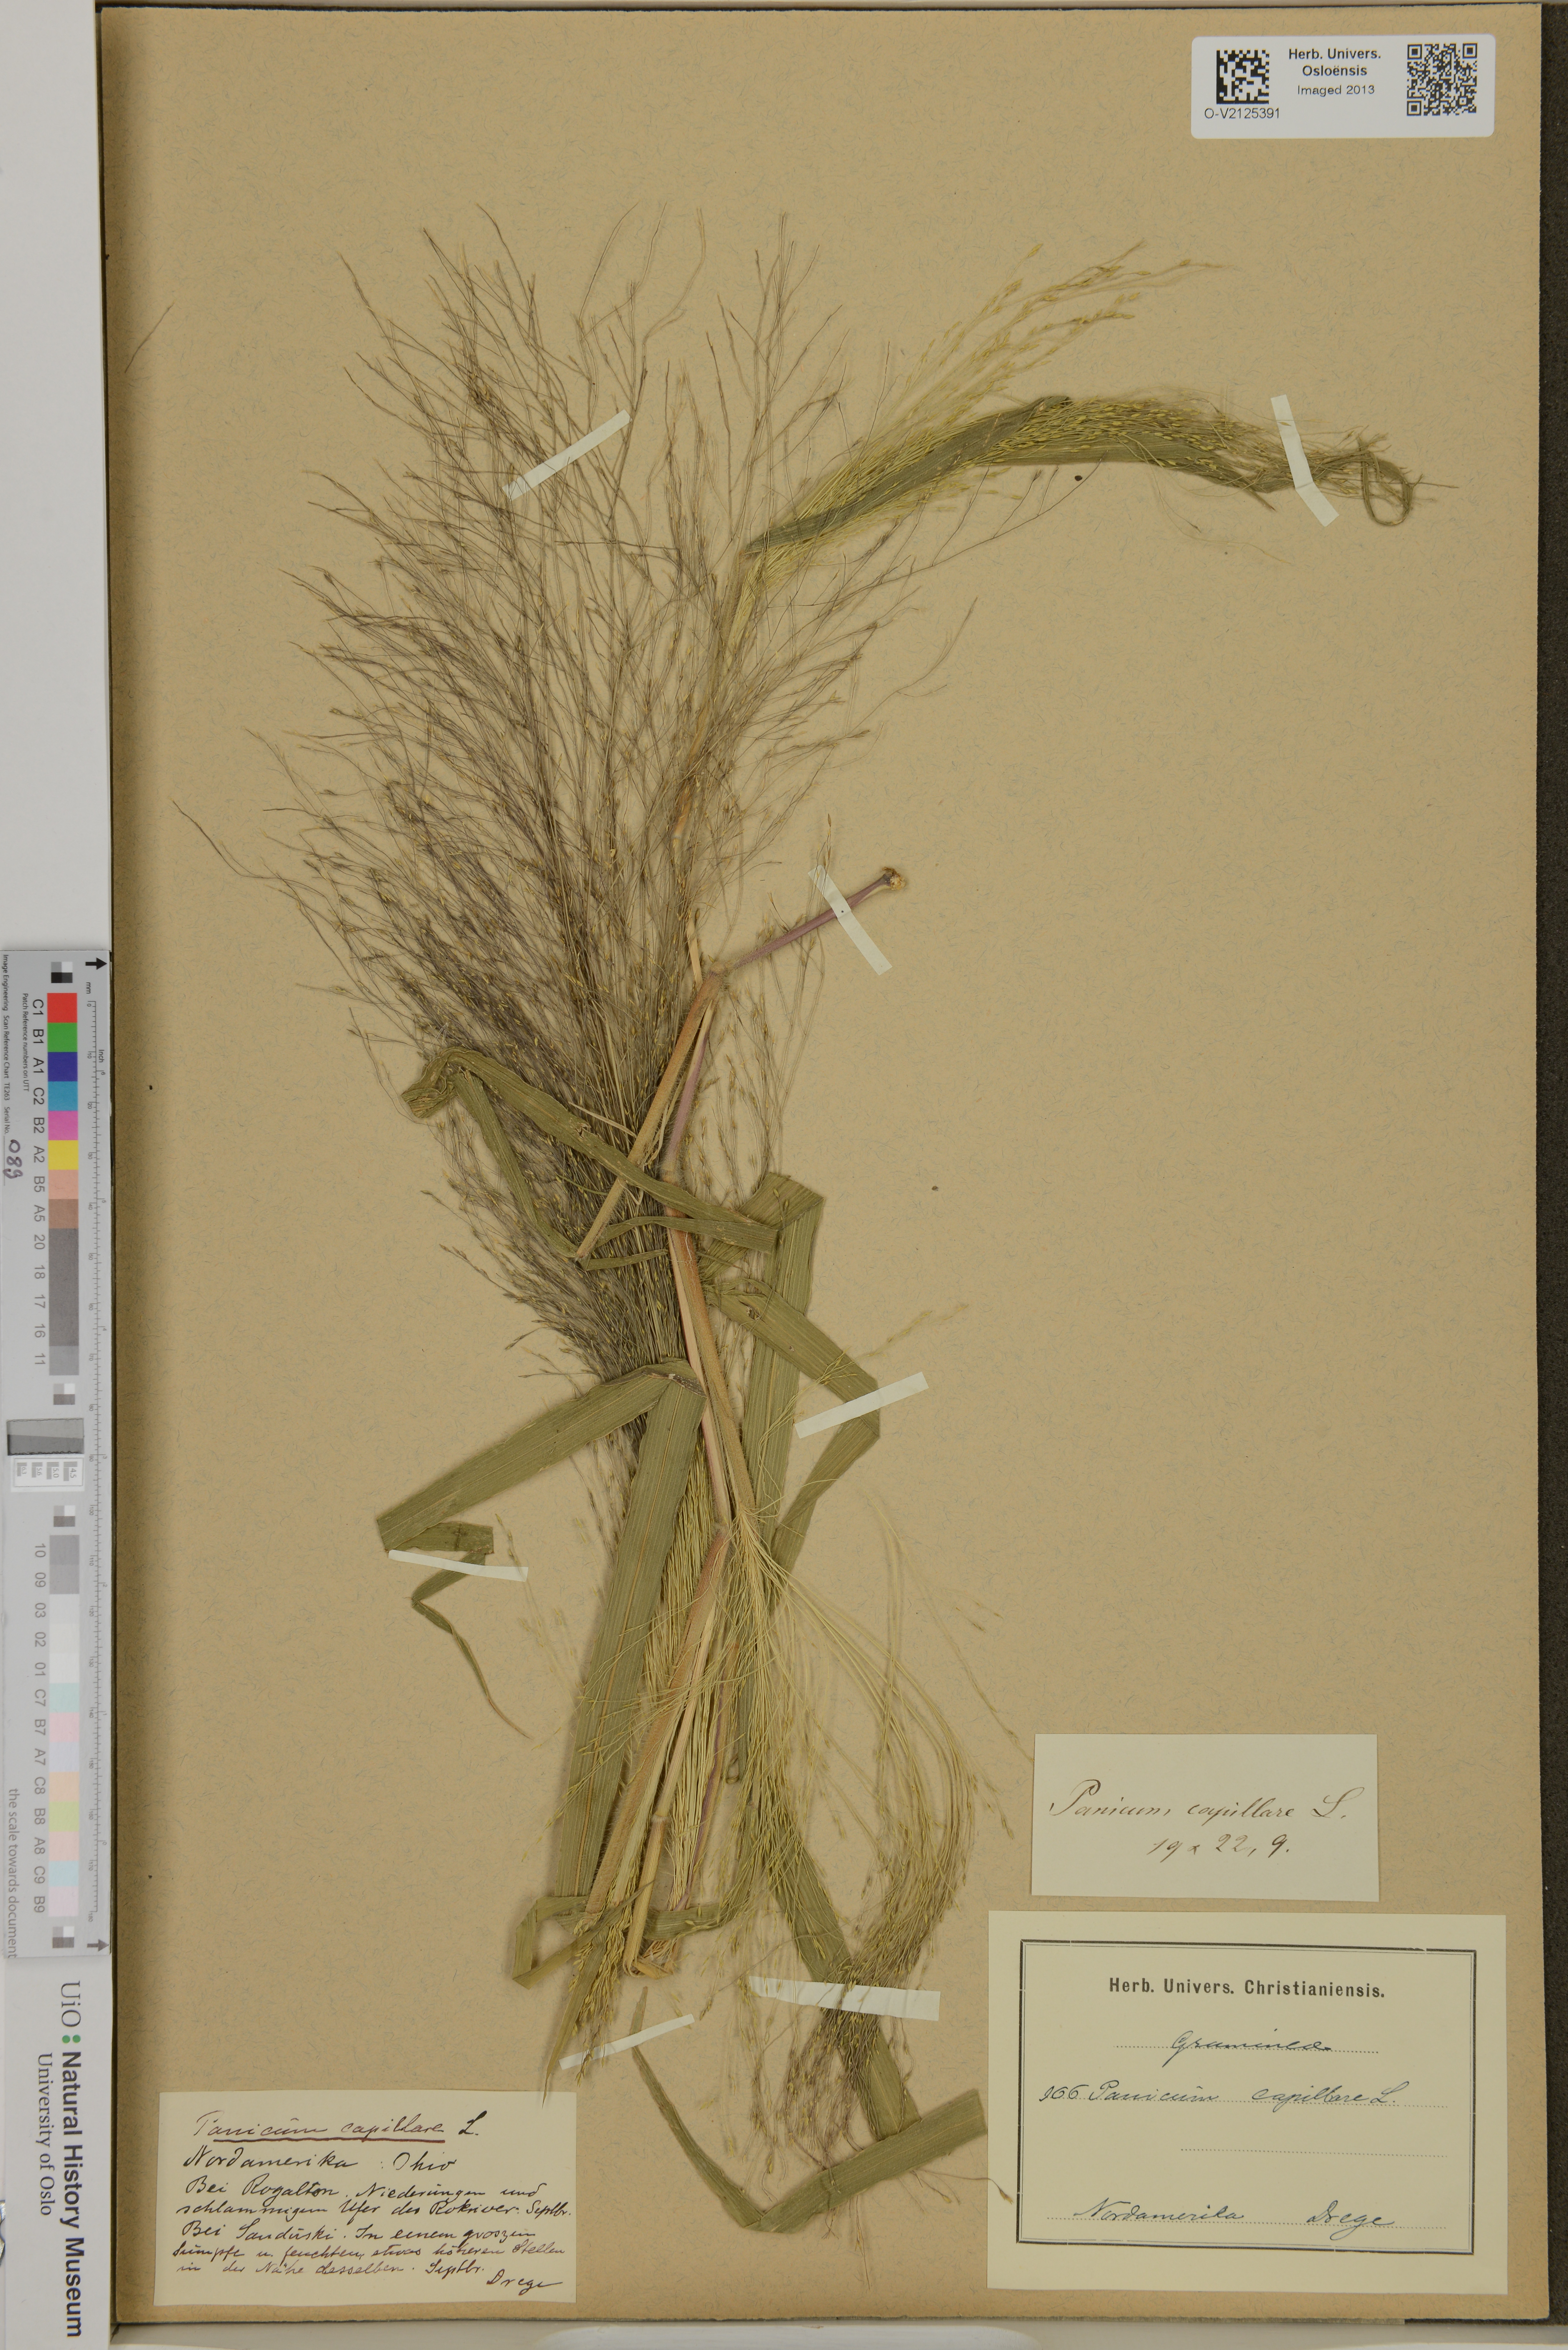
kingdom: Plantae
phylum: Tracheophyta
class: Liliopsida
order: Poales
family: Poaceae
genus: Panicum
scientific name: Panicum capillare
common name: Witch-grass
